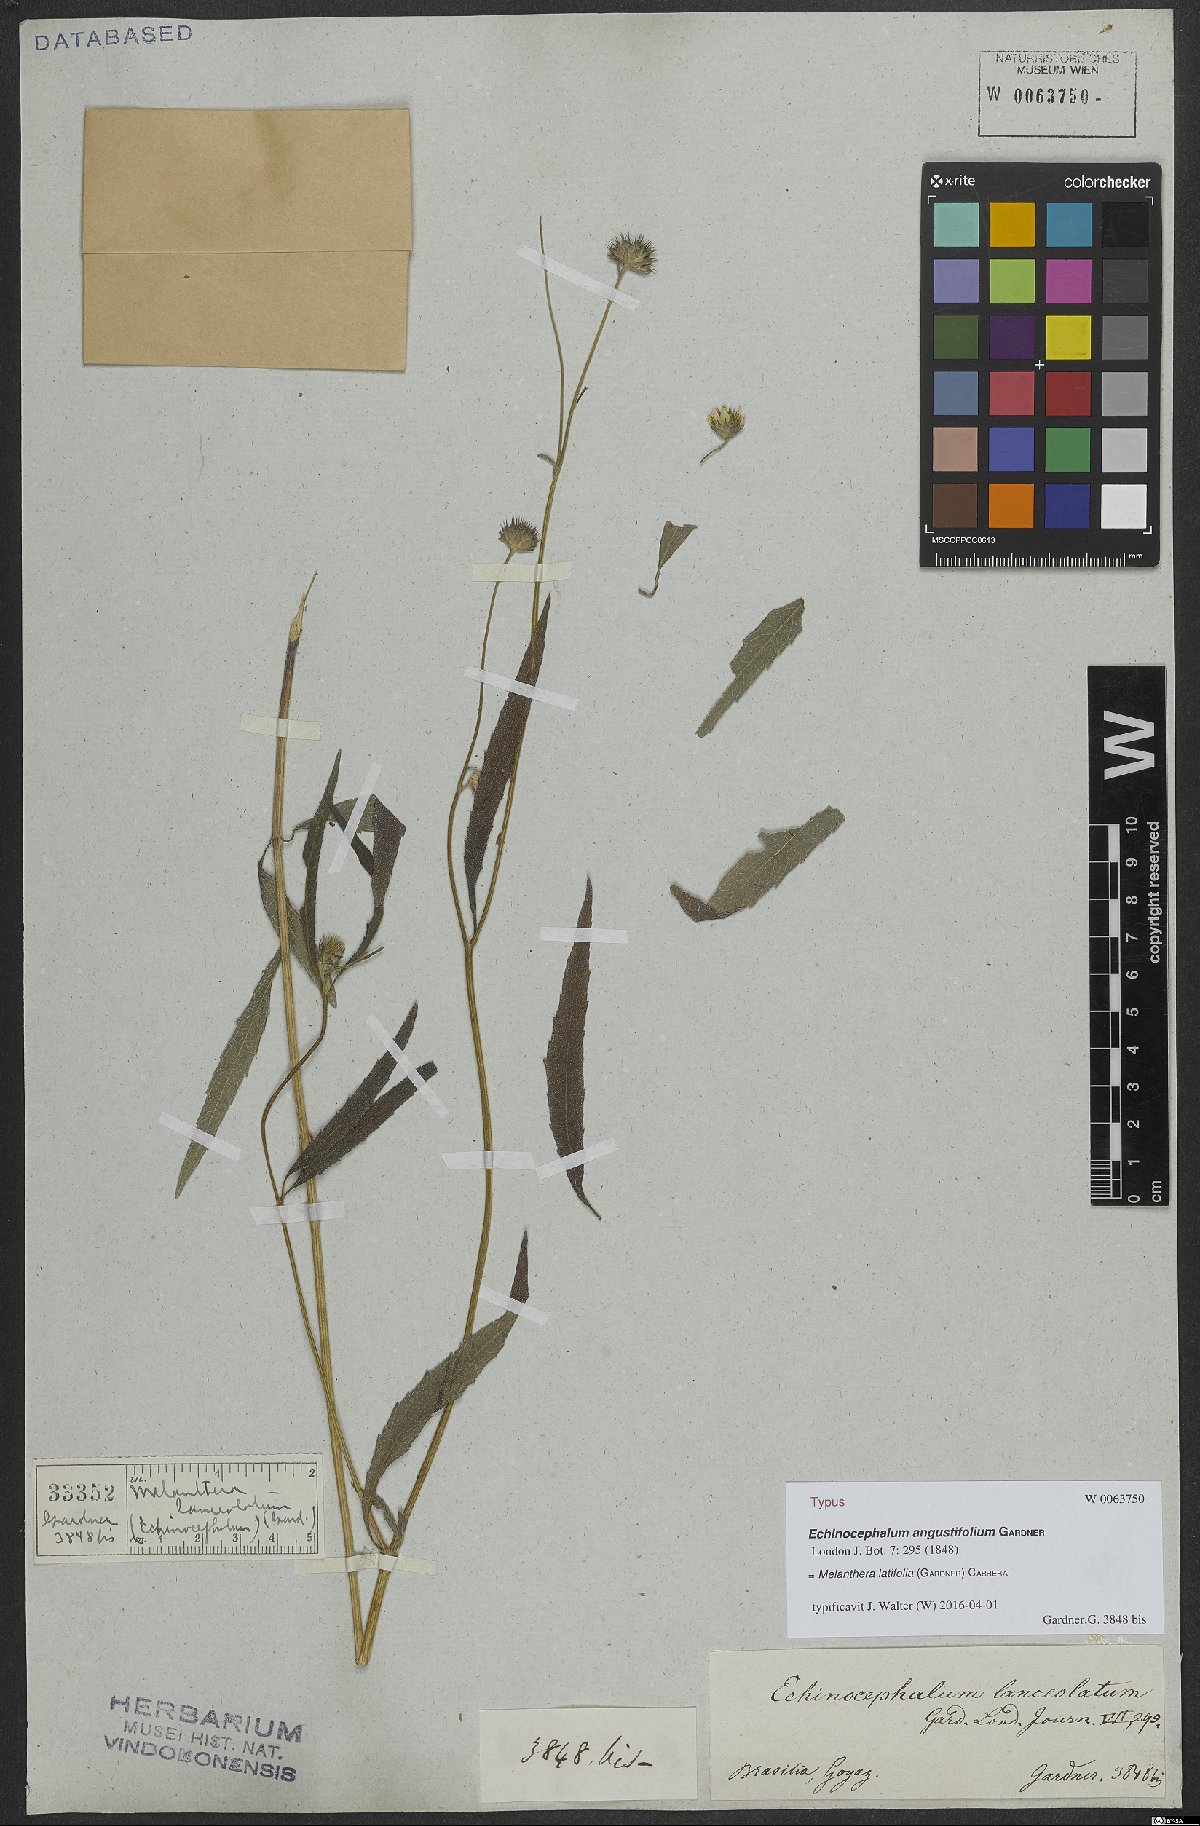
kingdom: Plantae
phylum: Tracheophyta
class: Magnoliopsida
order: Asterales
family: Asteraceae
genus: Echinocephalum
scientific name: Echinocephalum latifolium
